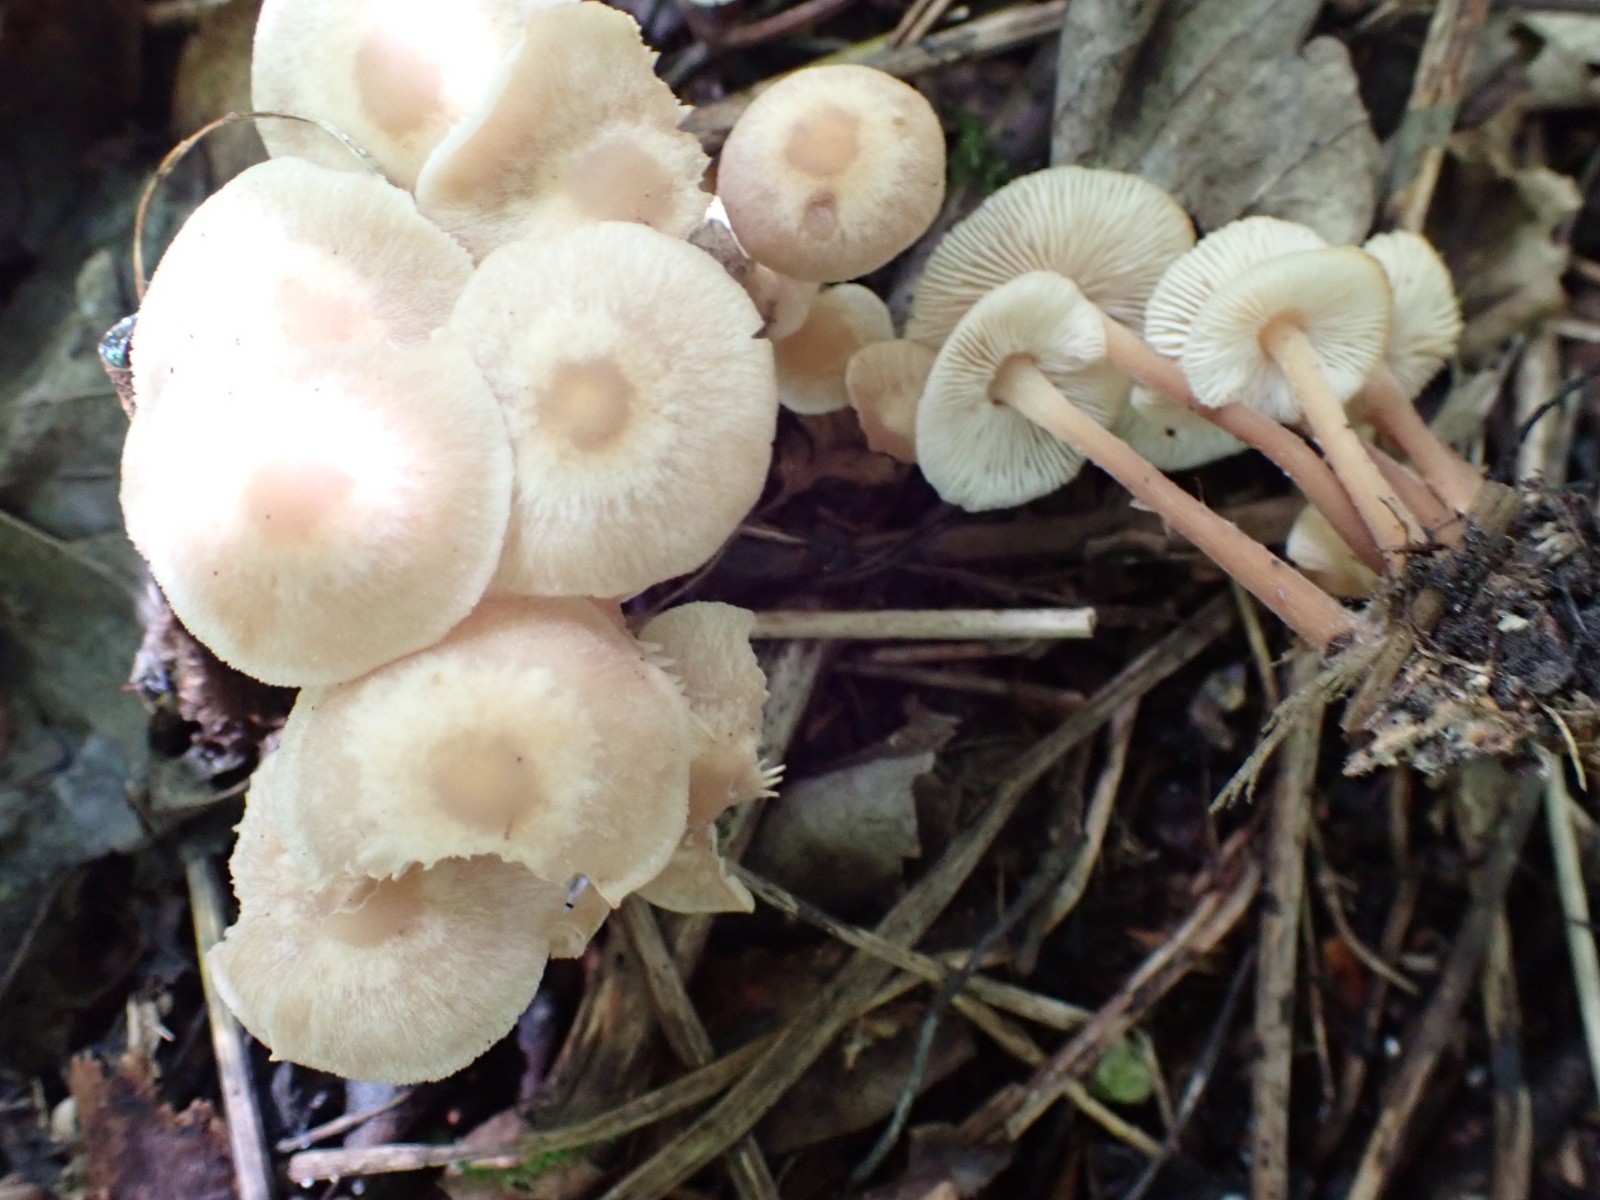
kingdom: Fungi
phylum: Basidiomycota
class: Agaricomycetes
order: Agaricales
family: Omphalotaceae
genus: Collybiopsis
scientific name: Collybiopsis confluens
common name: knippe-fladhat
